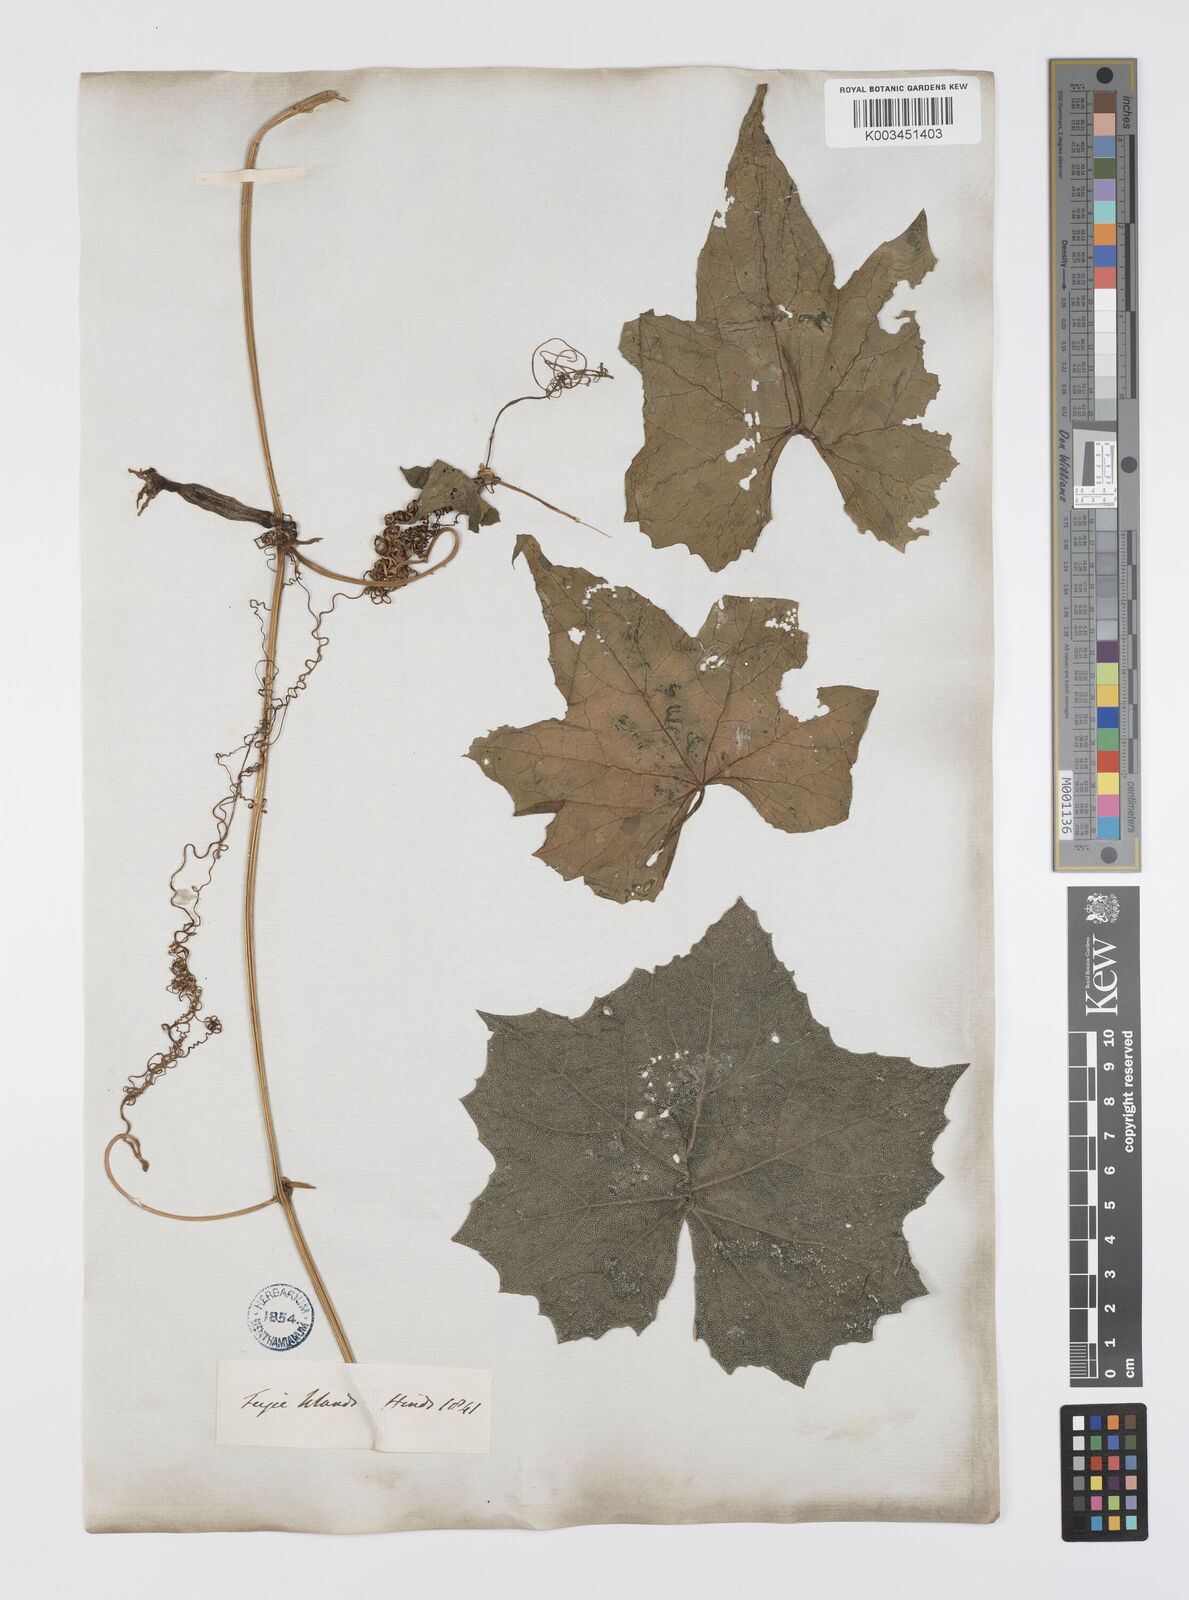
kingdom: Plantae
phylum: Tracheophyta
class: Magnoliopsida
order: Cucurbitales
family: Cucurbitaceae
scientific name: Cucurbitaceae
